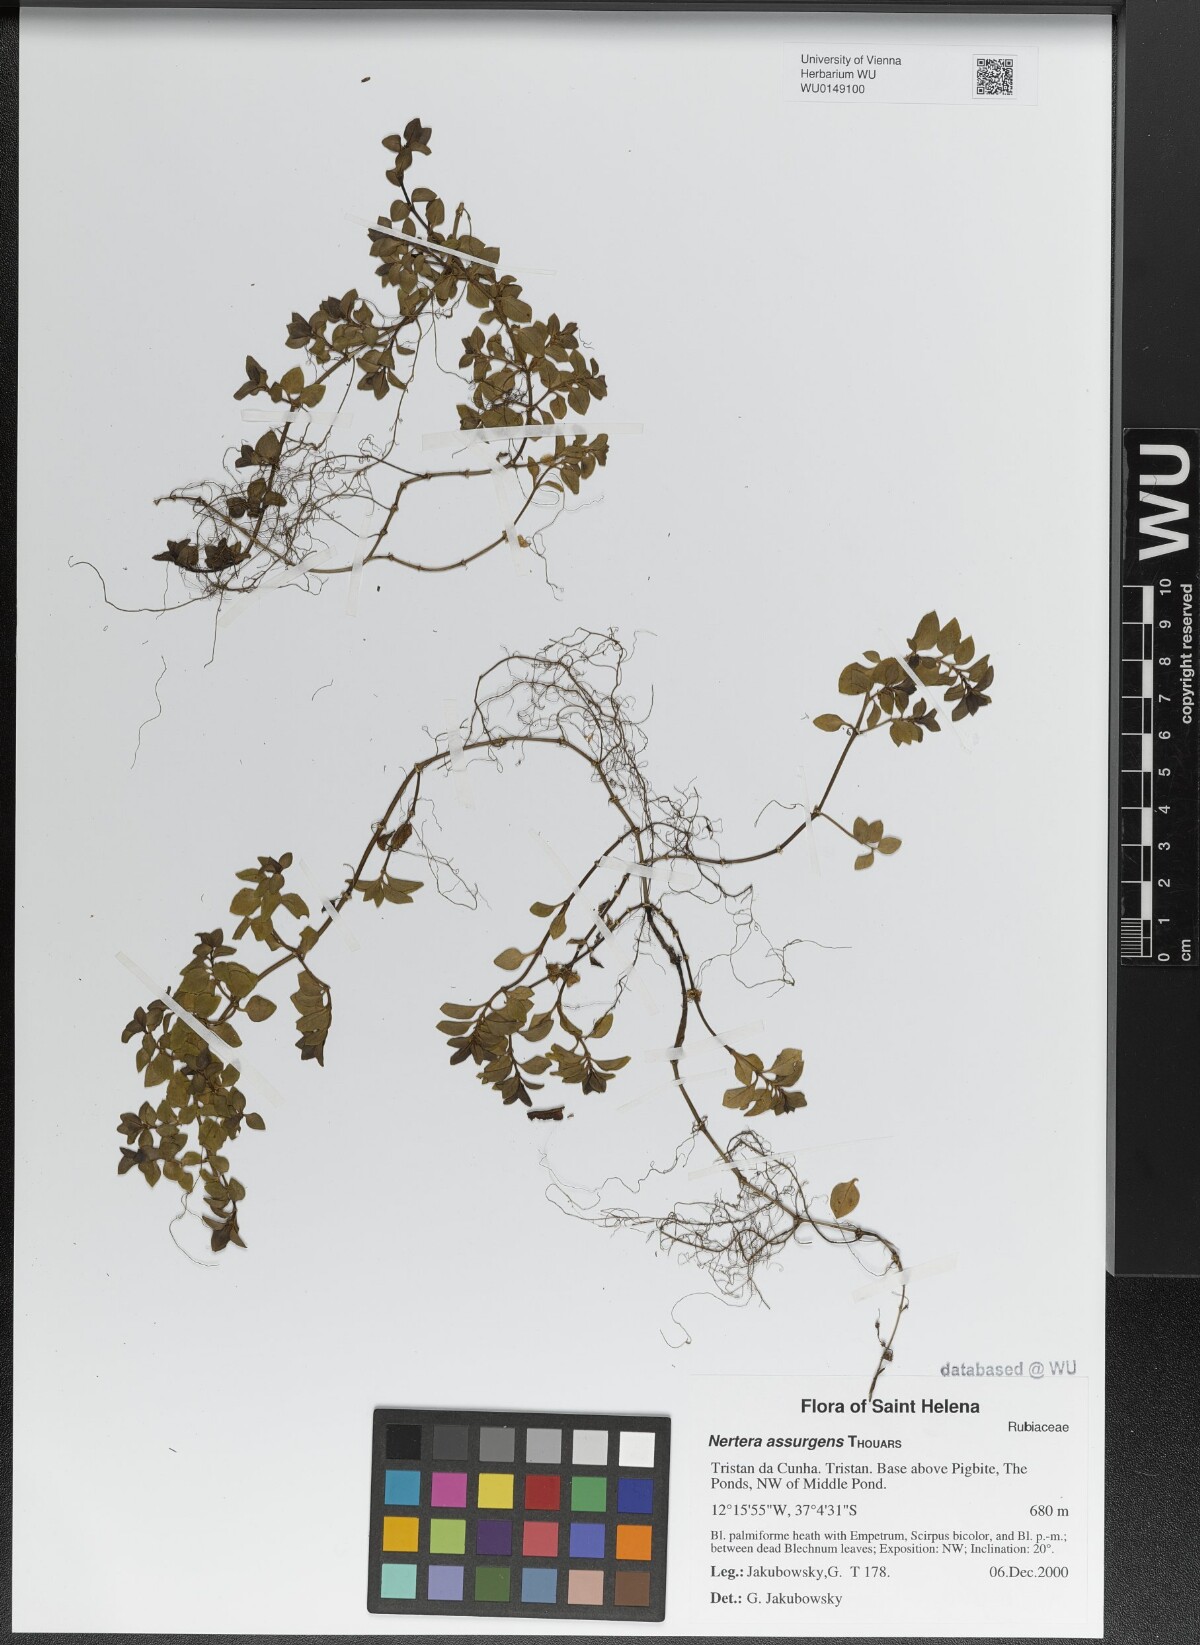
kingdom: Plantae
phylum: Tracheophyta
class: Magnoliopsida
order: Gentianales
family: Rubiaceae
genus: Nertera
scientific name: Nertera granadensis
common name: Beadplant
